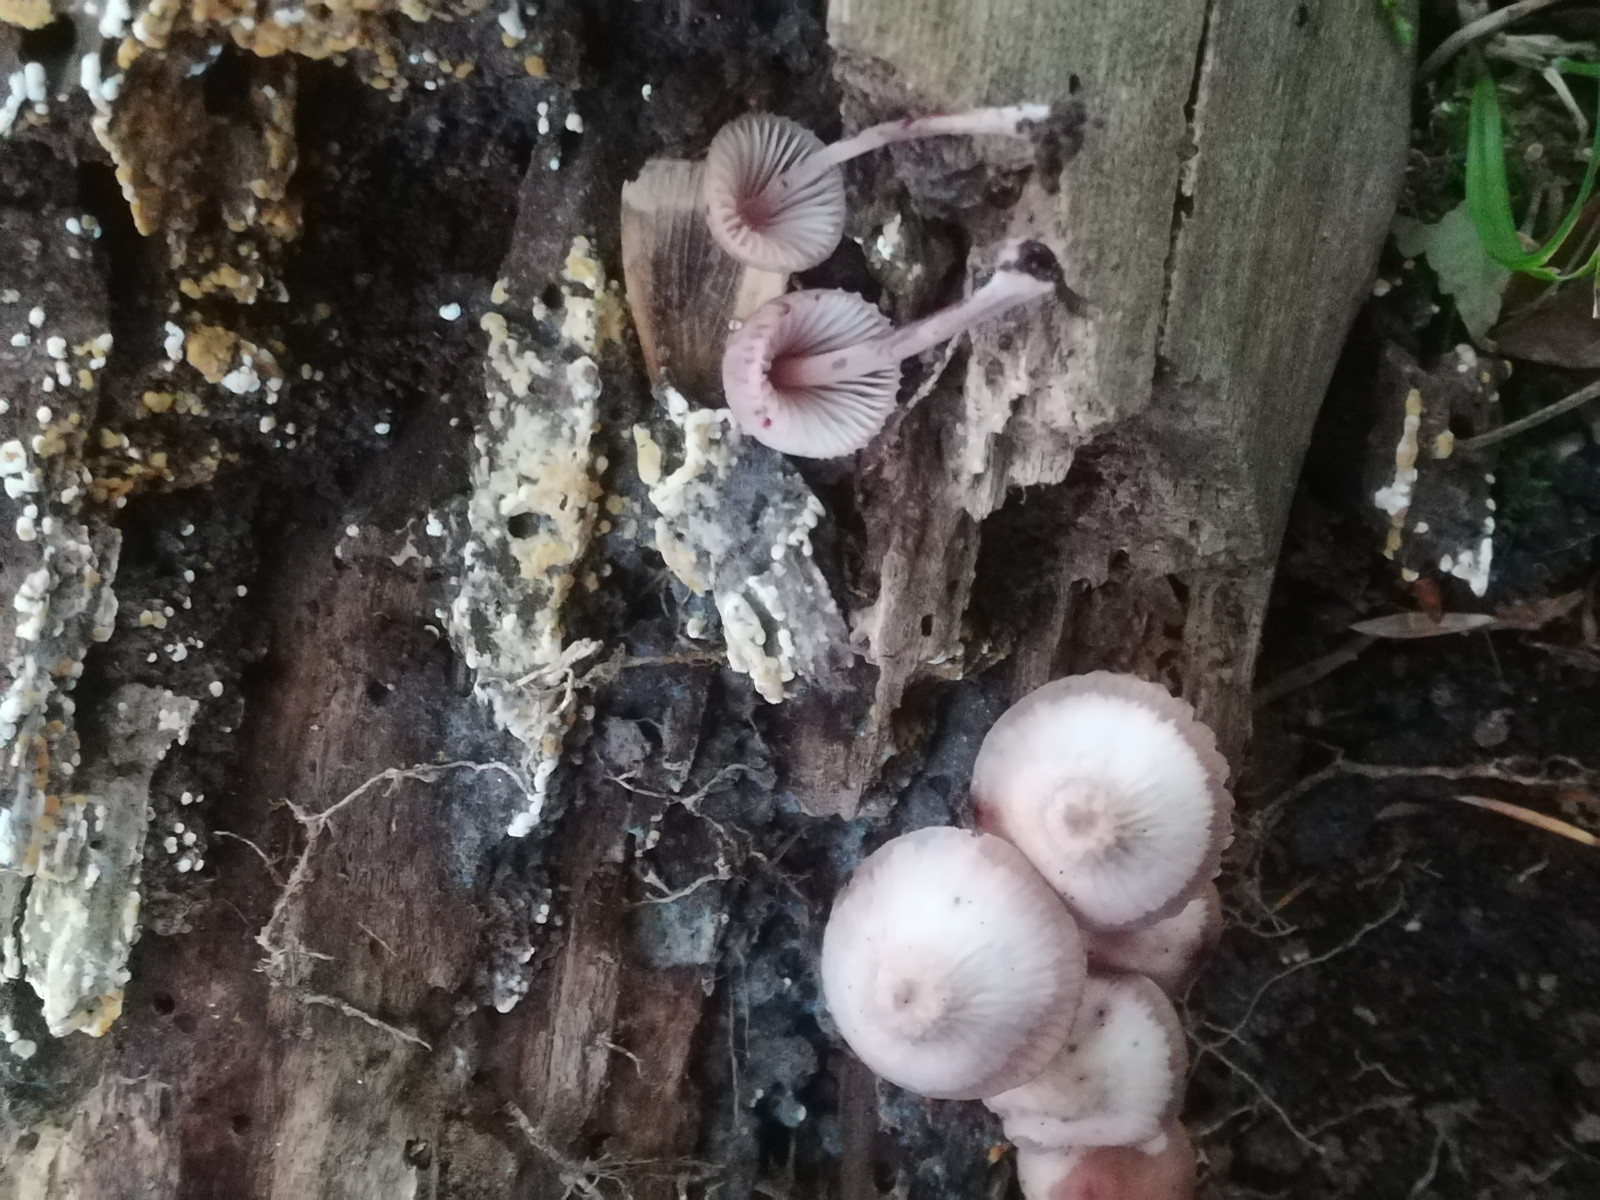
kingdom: Fungi
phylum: Basidiomycota
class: Agaricomycetes
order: Agaricales
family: Mycenaceae
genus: Mycena
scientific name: Mycena haematopus
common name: blødende huesvamp
